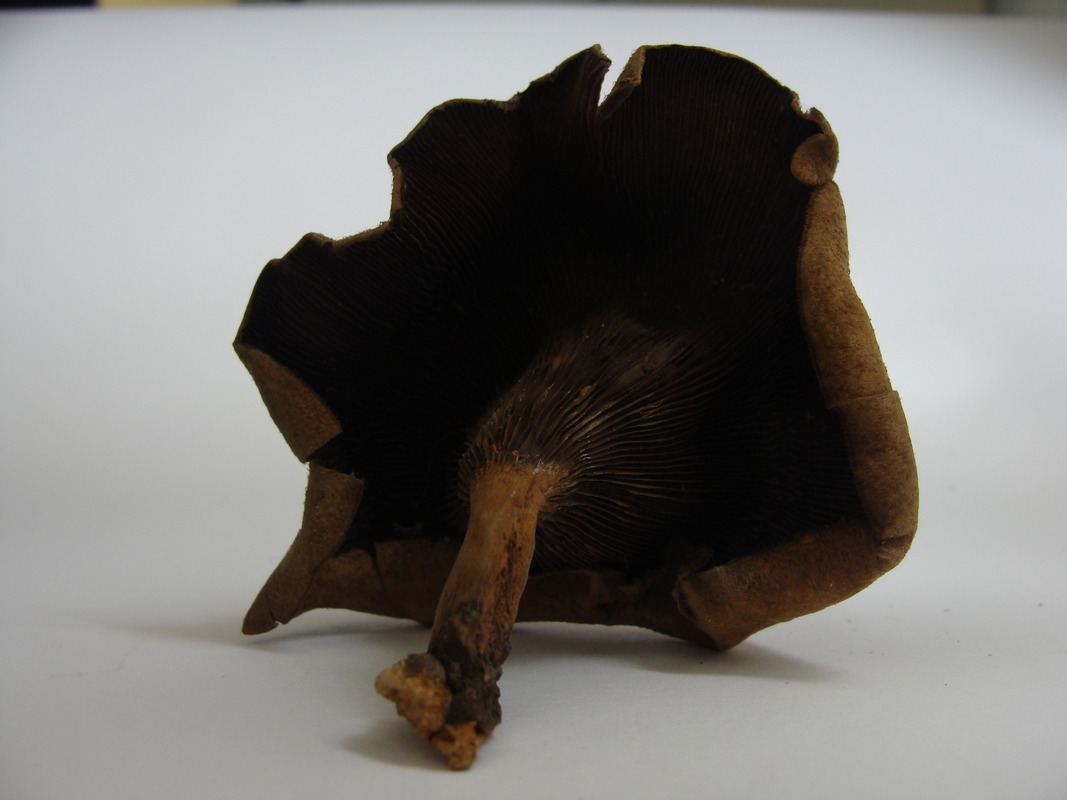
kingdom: Fungi
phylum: Basidiomycota
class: Agaricomycetes
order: Polyporales
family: Polyporaceae
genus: Lentinus
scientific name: Lentinus
